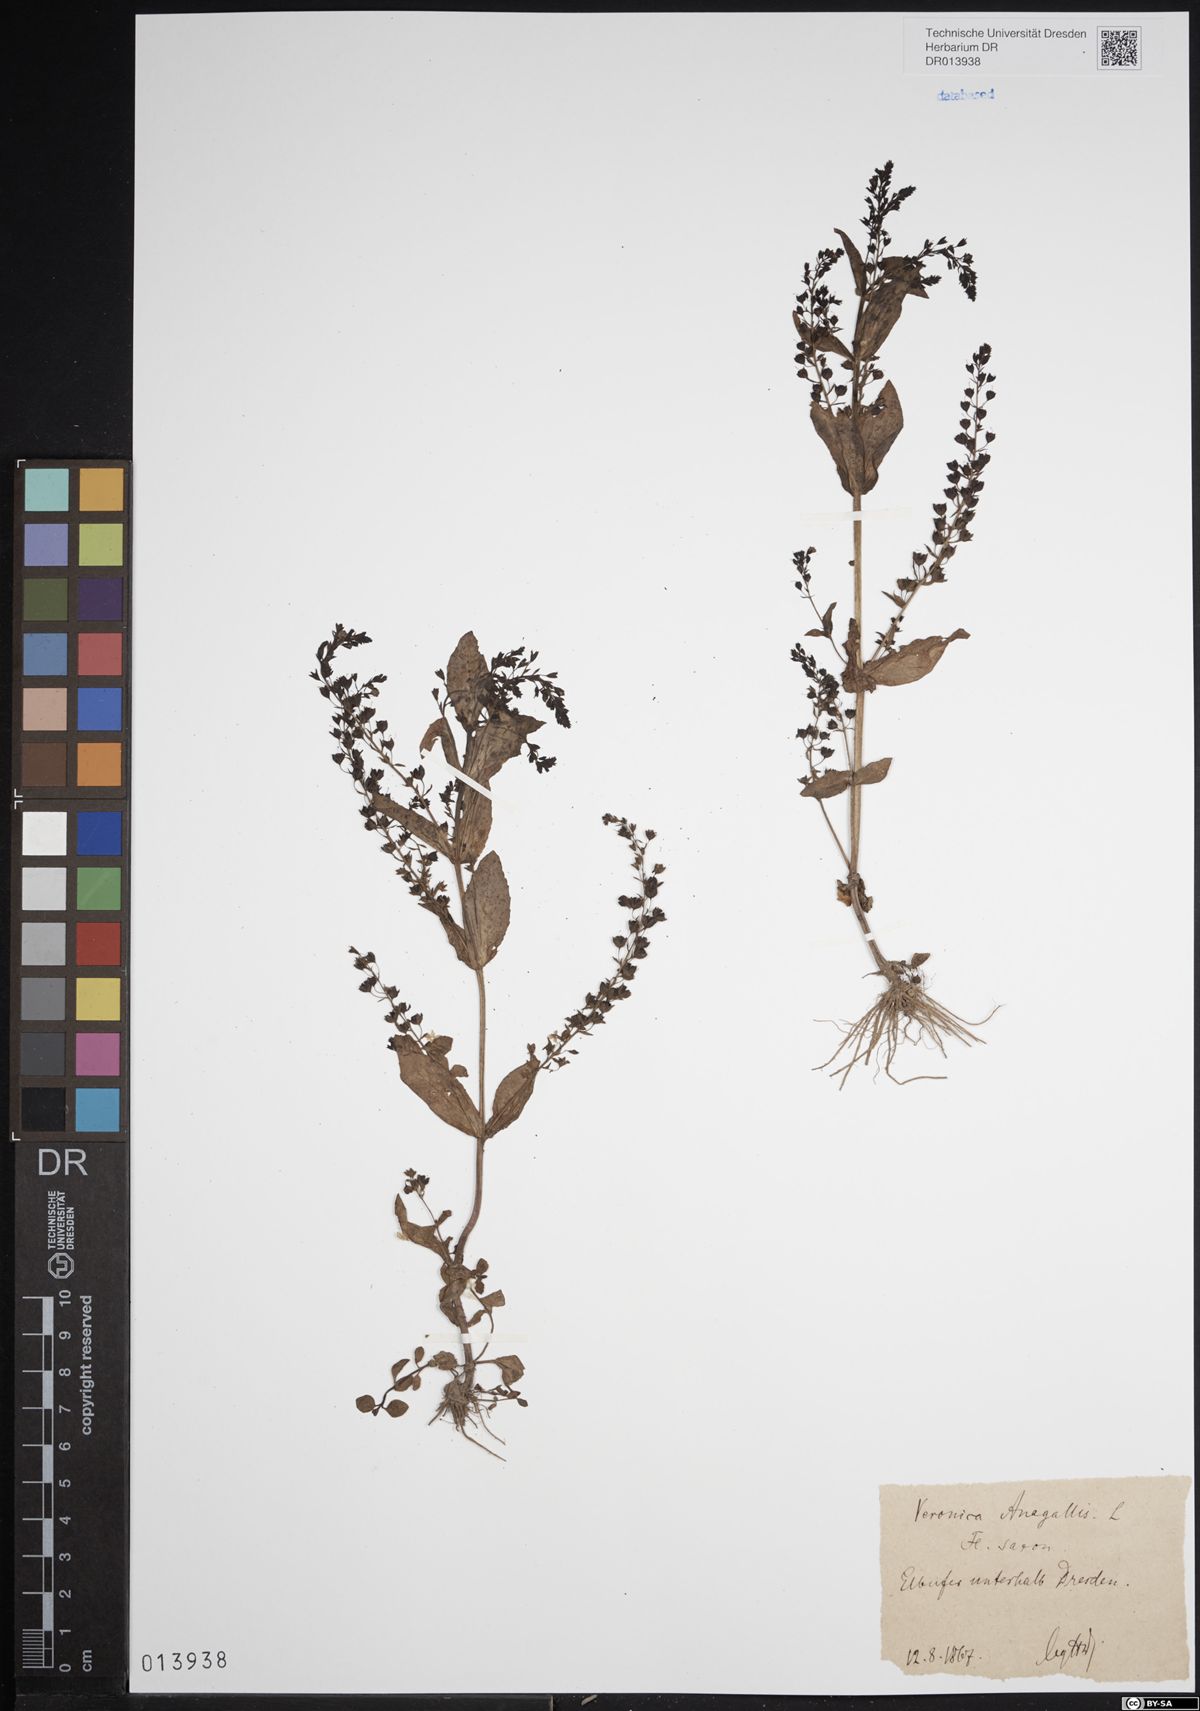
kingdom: Plantae
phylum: Tracheophyta
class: Magnoliopsida
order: Lamiales
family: Plantaginaceae
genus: Veronica
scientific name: Veronica anagallis-aquatica
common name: Water speedwell
